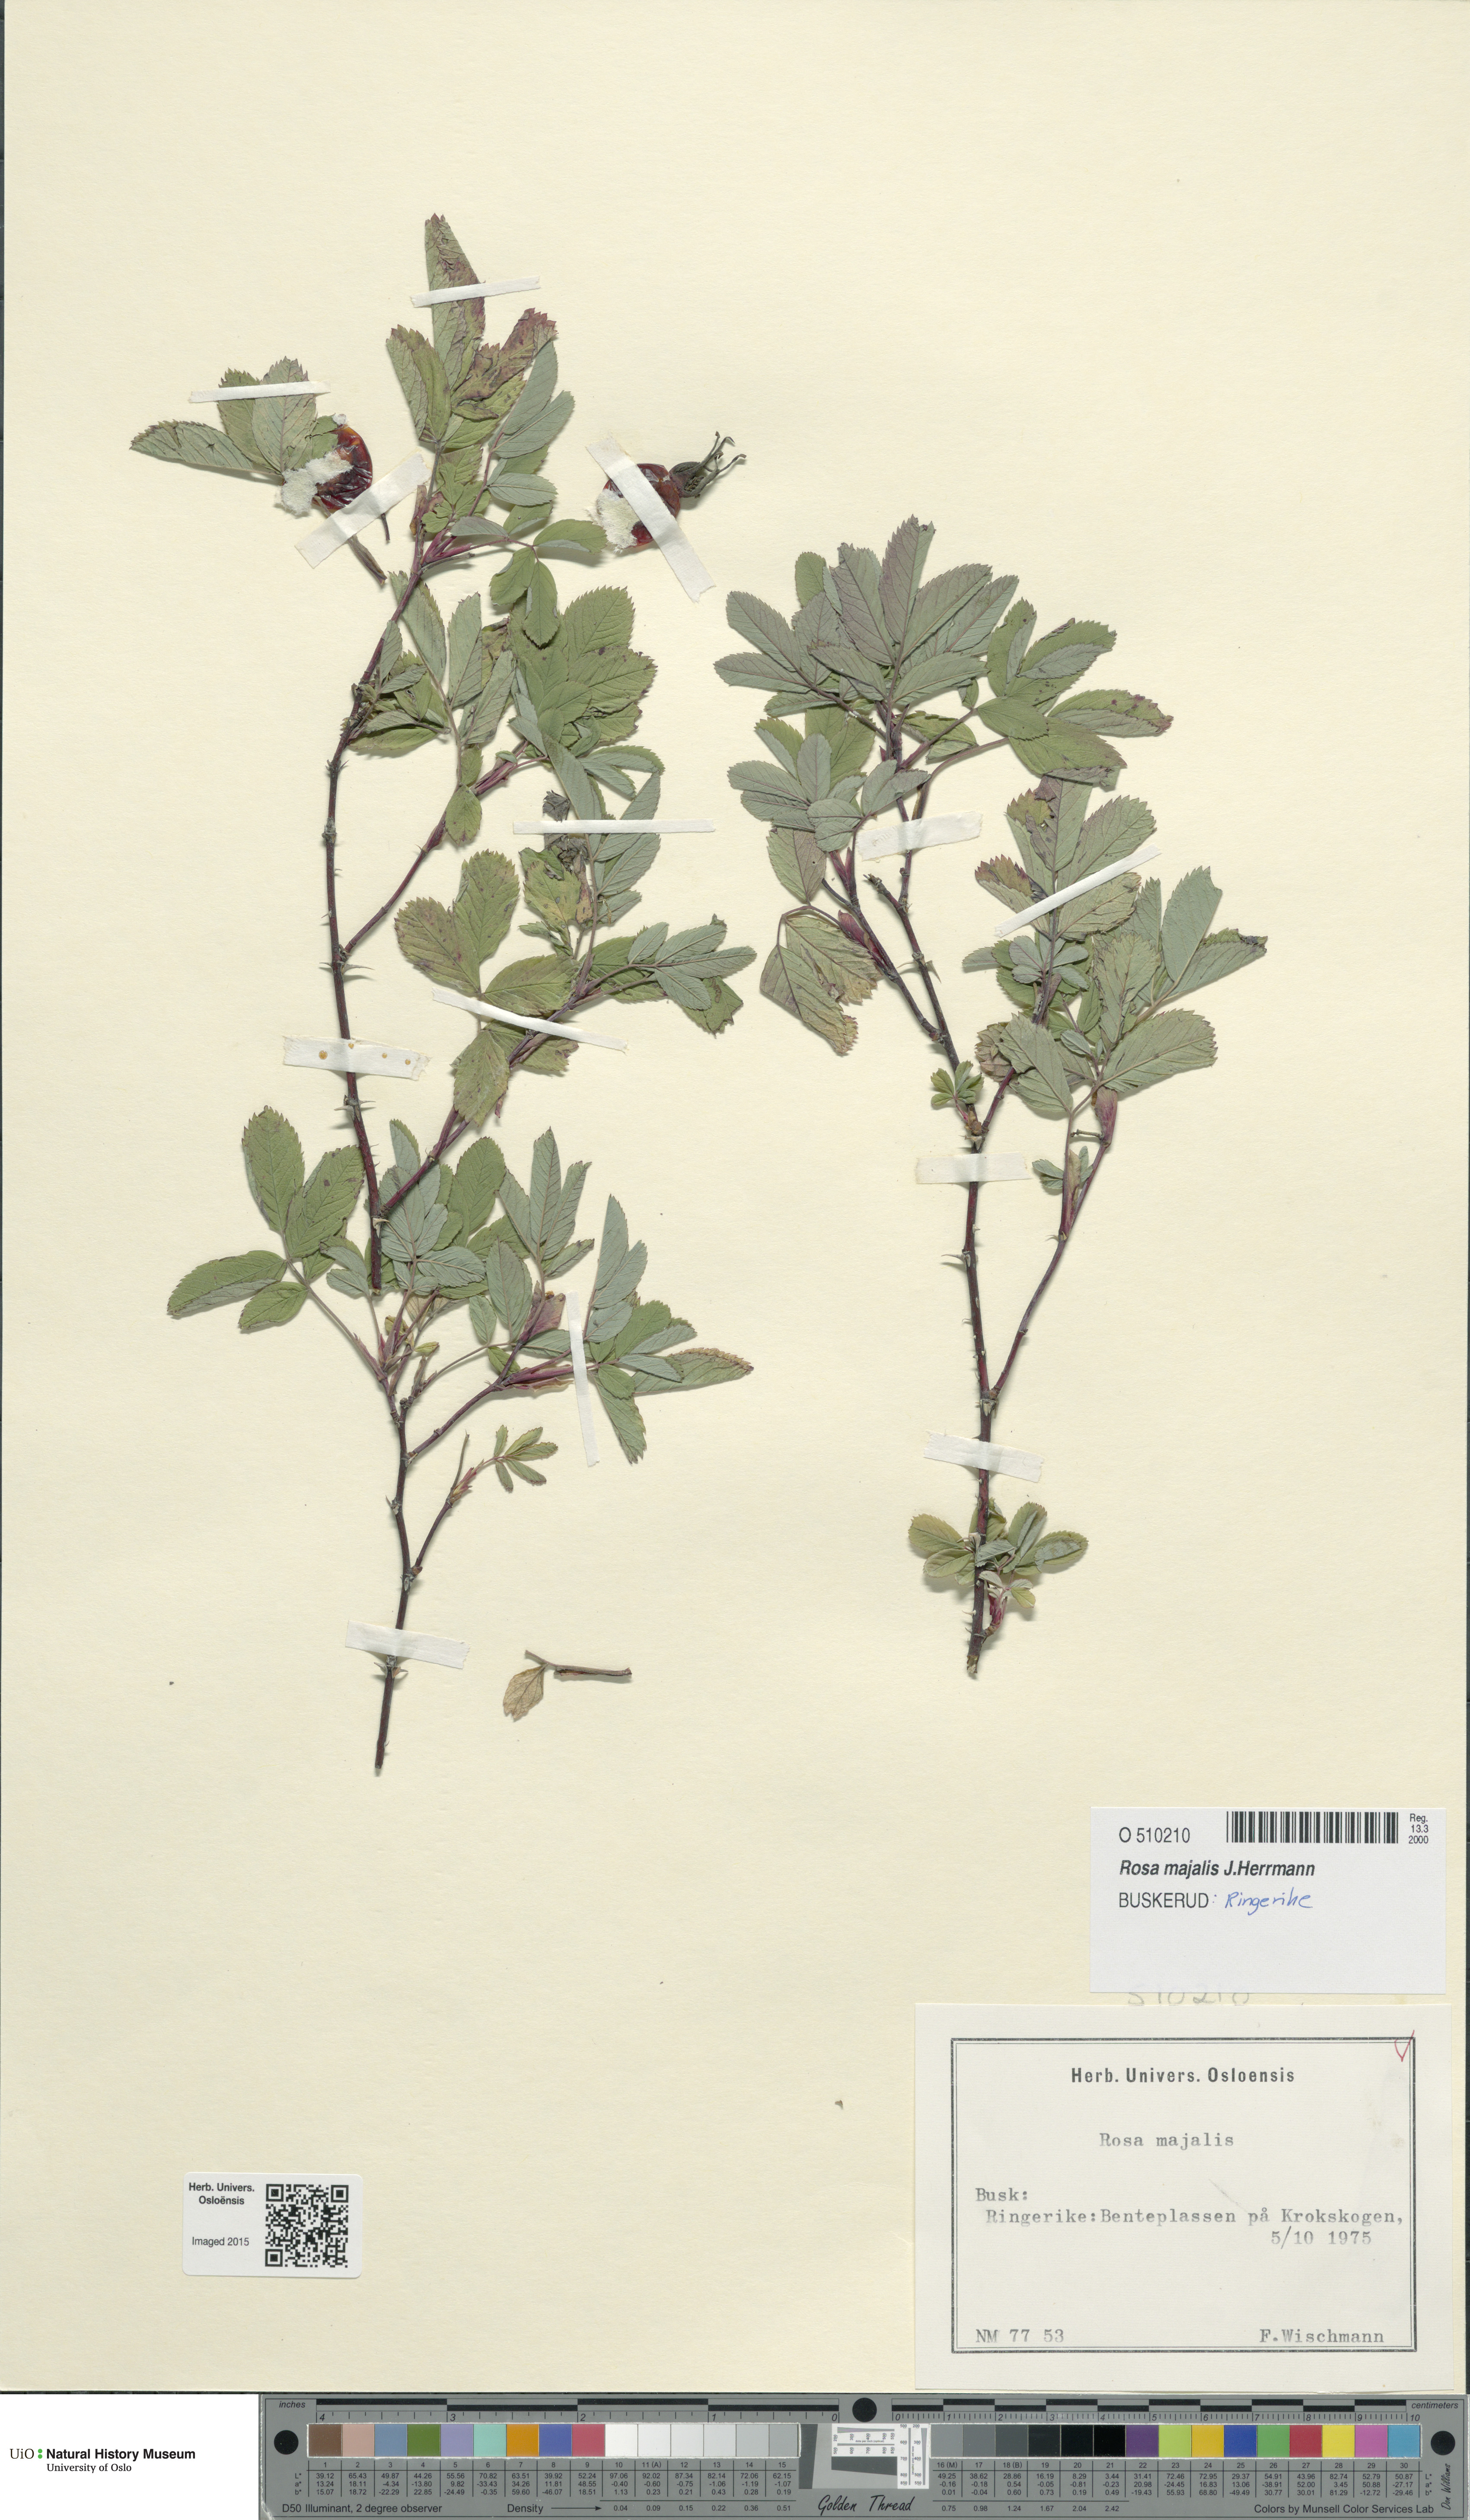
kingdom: Plantae
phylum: Tracheophyta
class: Magnoliopsida
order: Rosales
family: Rosaceae
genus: Rosa
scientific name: Rosa majalis
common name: Cinnamon rose
